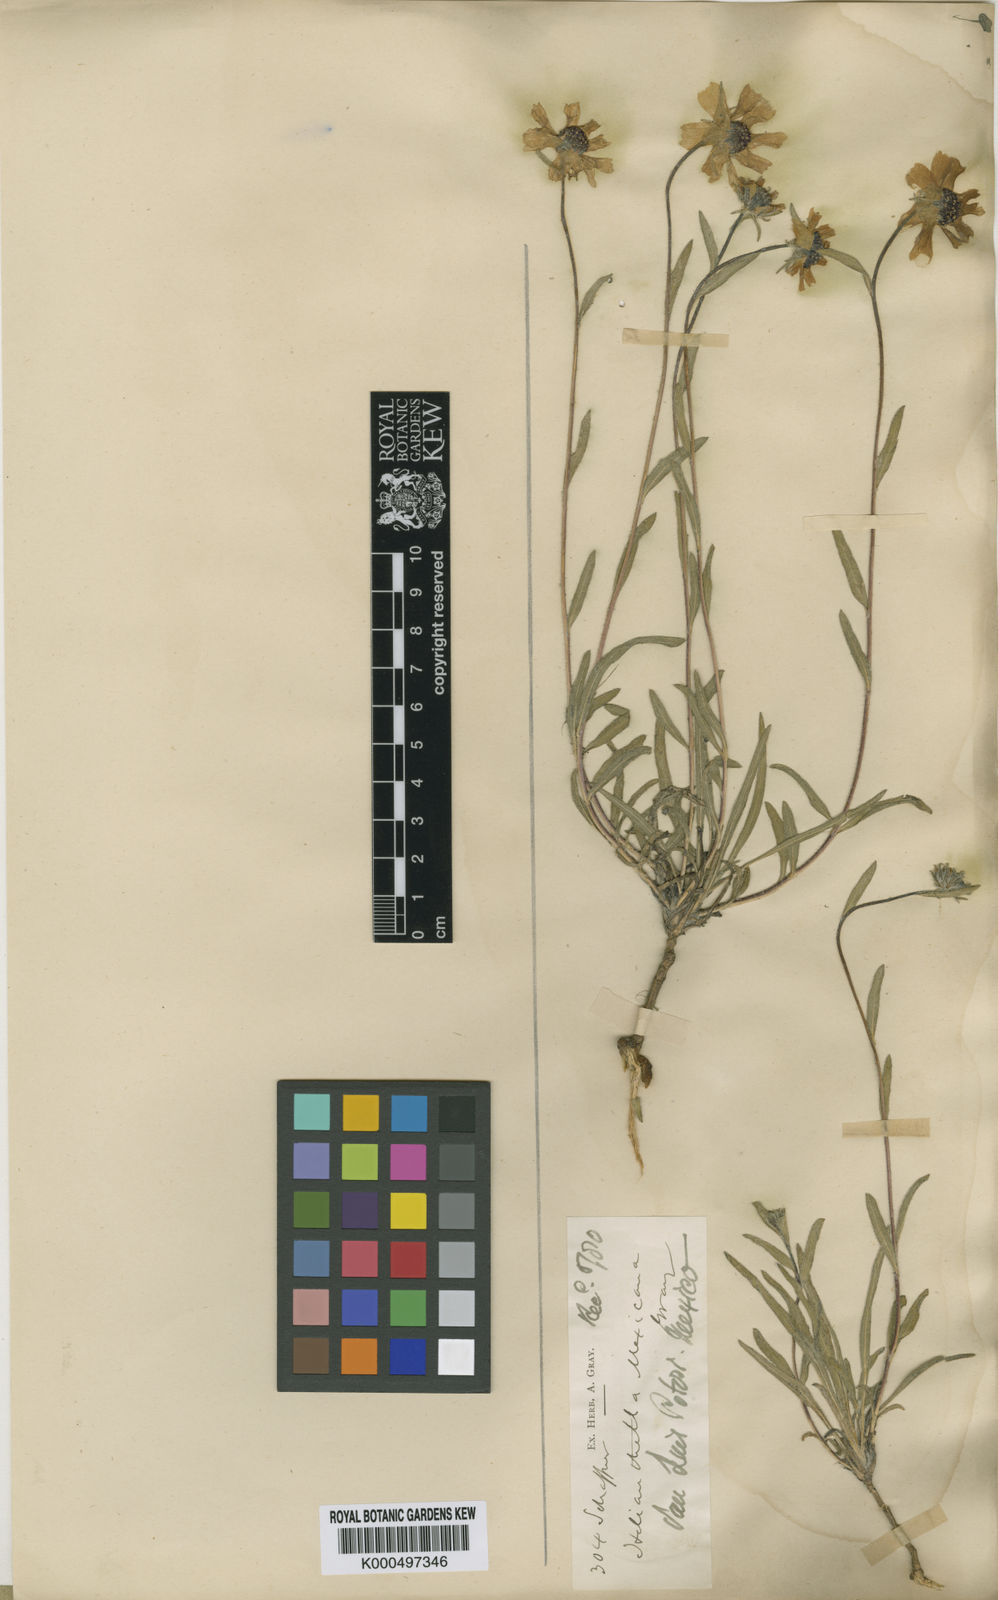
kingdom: Plantae
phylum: Tracheophyta
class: Magnoliopsida
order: Asterales
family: Asteraceae
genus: Helianthella
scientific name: Helianthella mexicana
